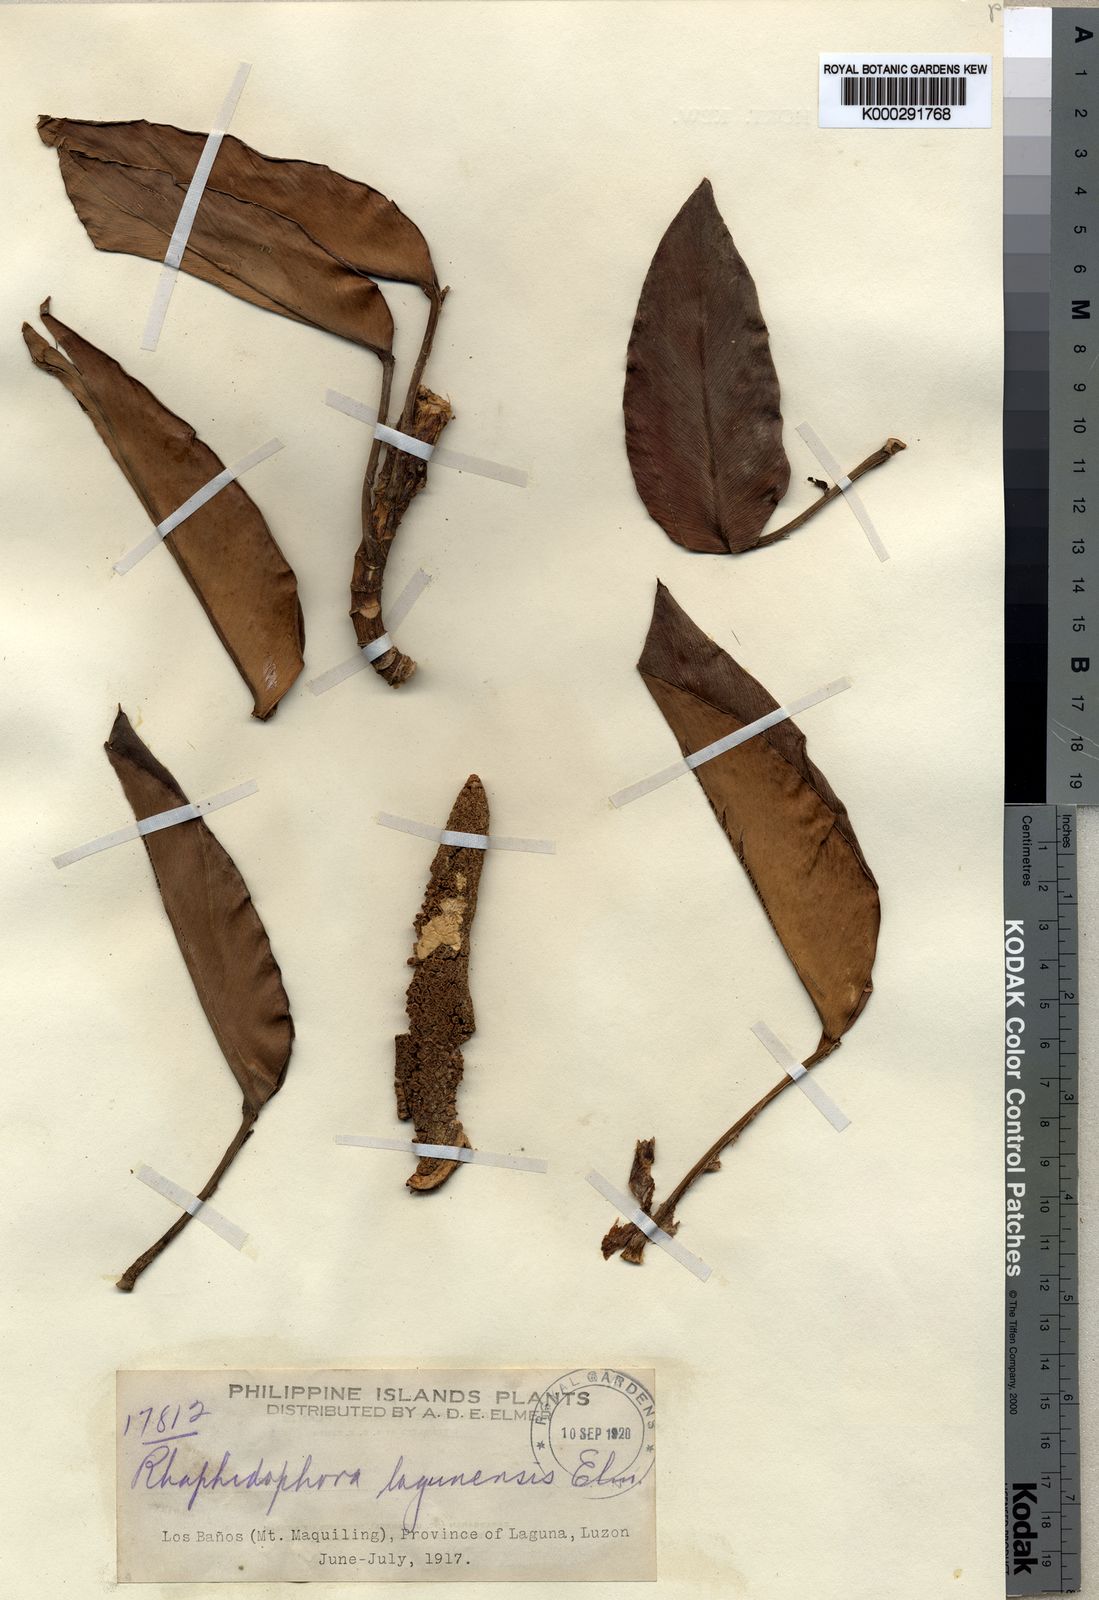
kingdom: Plantae
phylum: Tracheophyta
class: Liliopsida
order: Alismatales
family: Araceae
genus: Rhaphidophora
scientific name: Rhaphidophora acuminata
